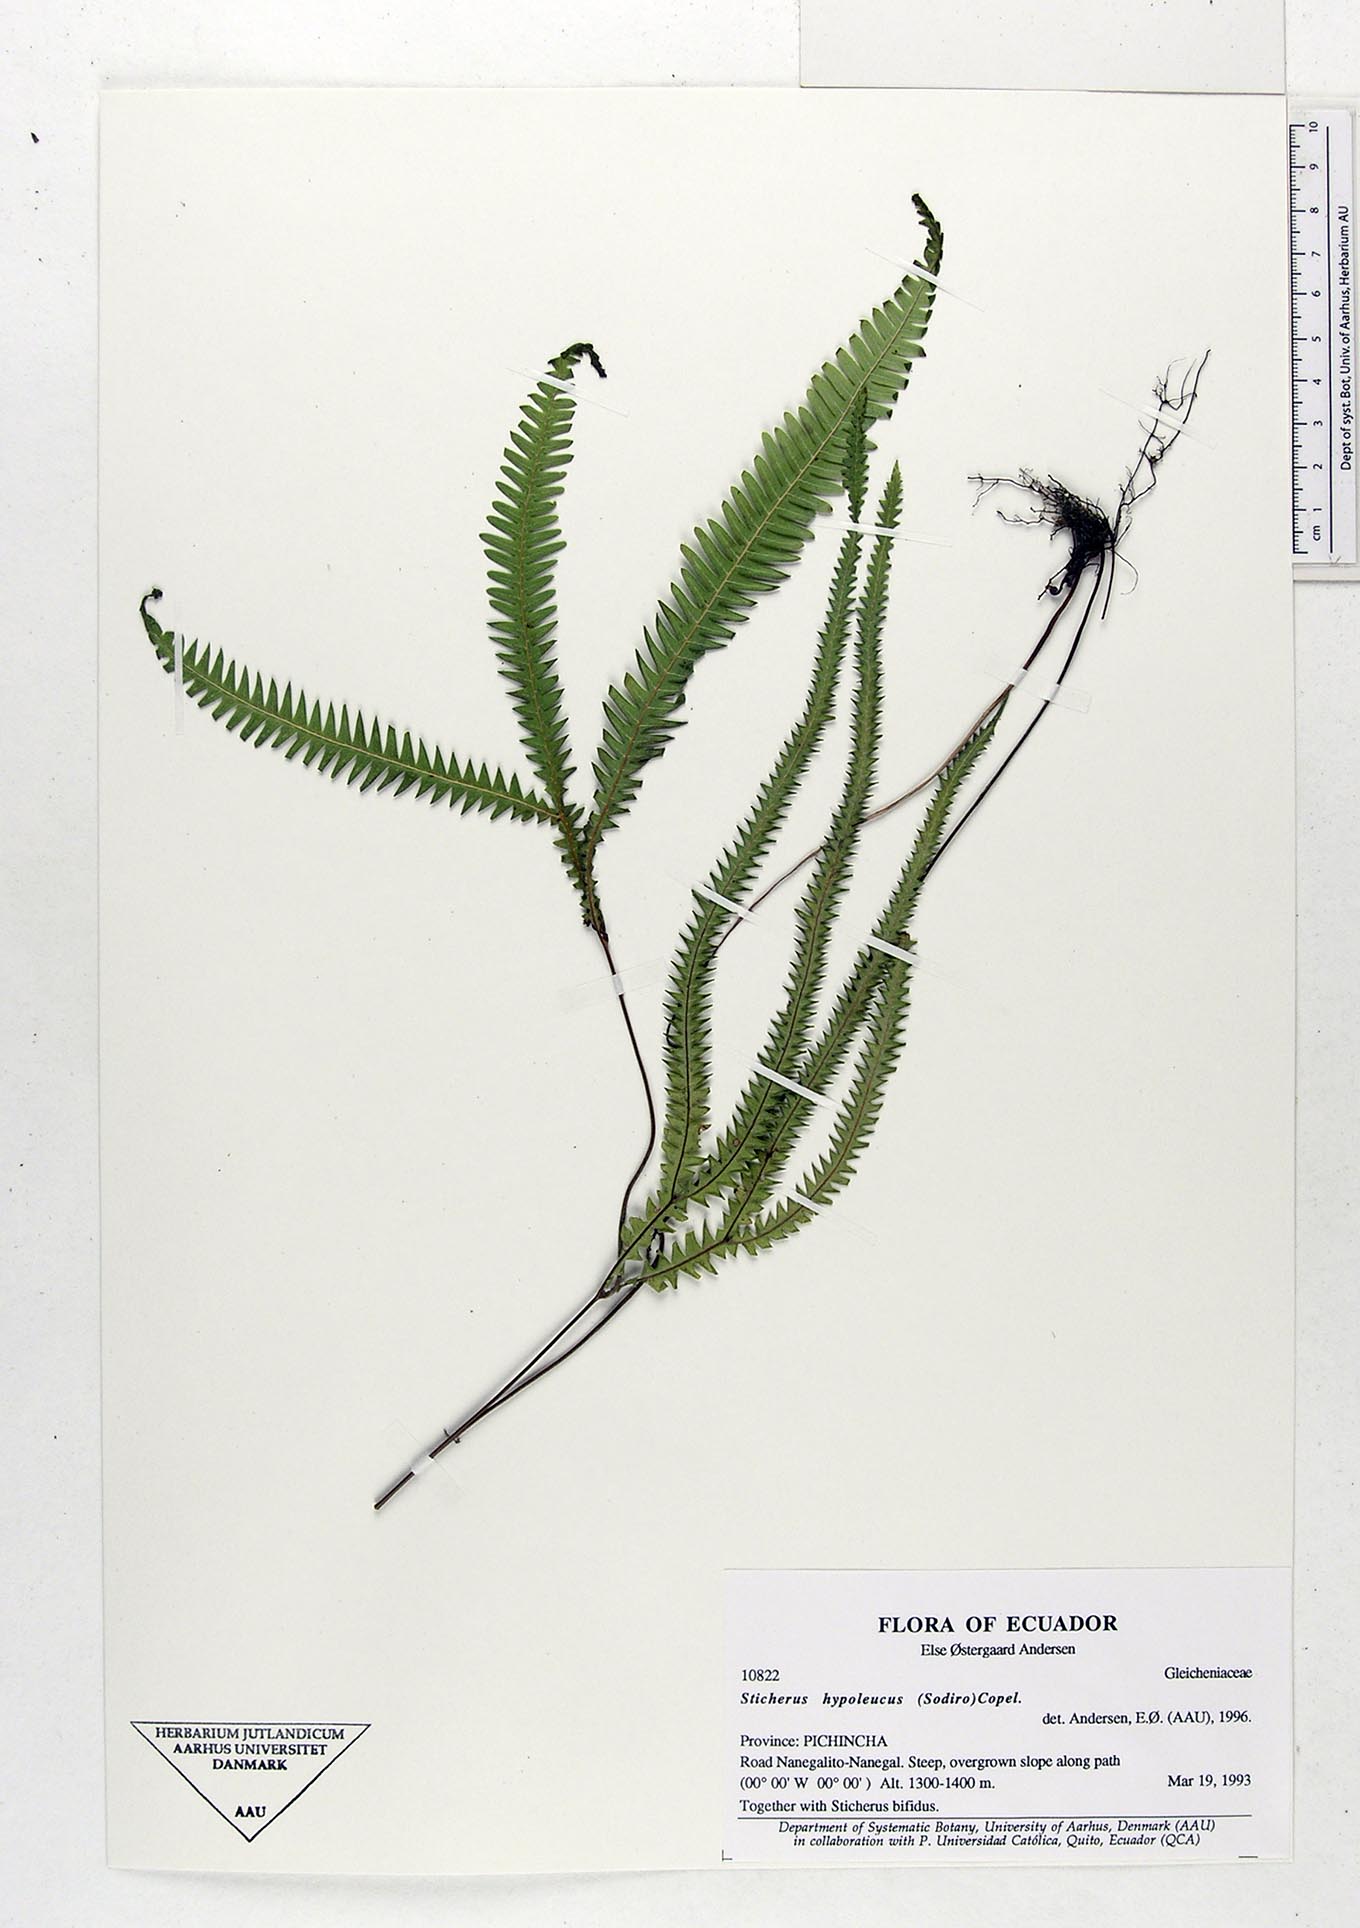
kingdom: Plantae
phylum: Tracheophyta
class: Polypodiopsida
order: Gleicheniales
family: Gleicheniaceae
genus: Sticherus
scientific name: Sticherus hypoleucus
